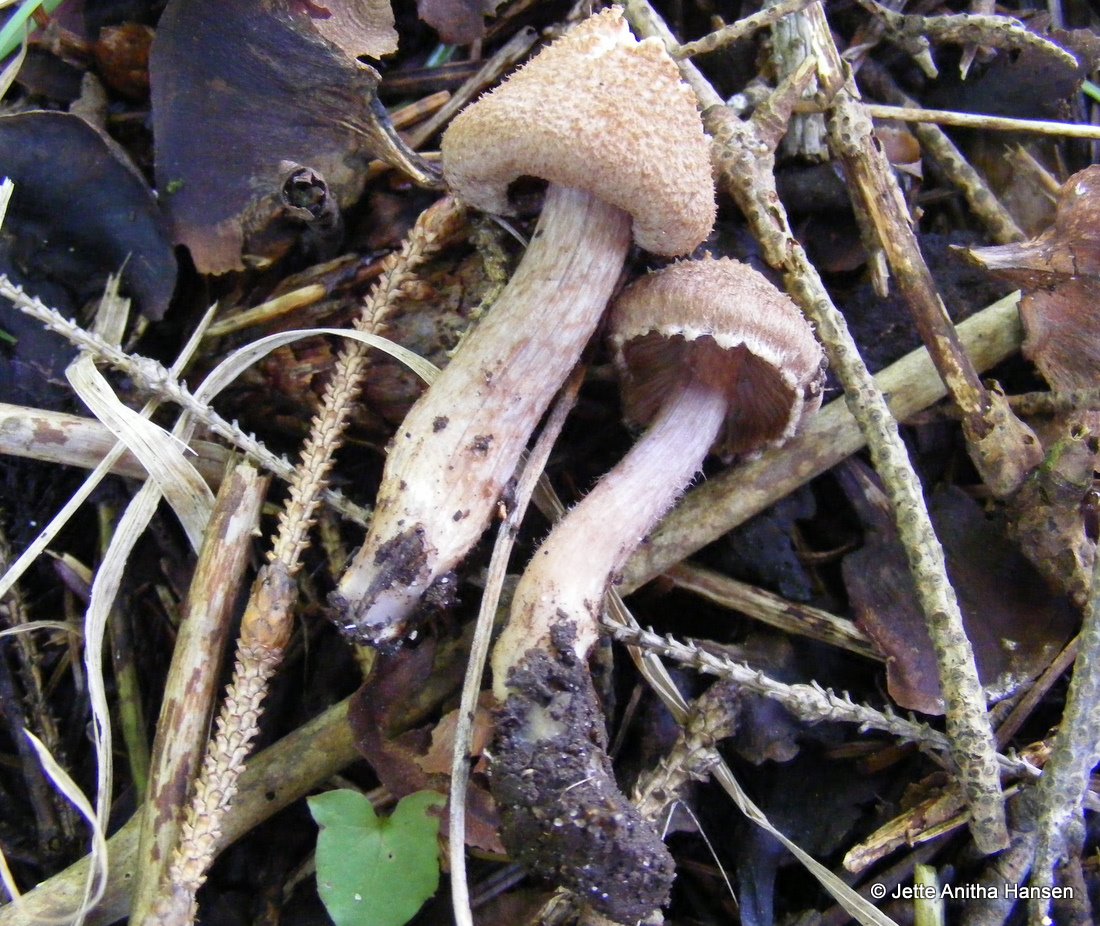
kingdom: Fungi
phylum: Basidiomycota
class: Agaricomycetes
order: Agaricales
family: Inocybaceae
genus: Inocybe
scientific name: Inocybe cincinnata
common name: lillabladet trævlhat
